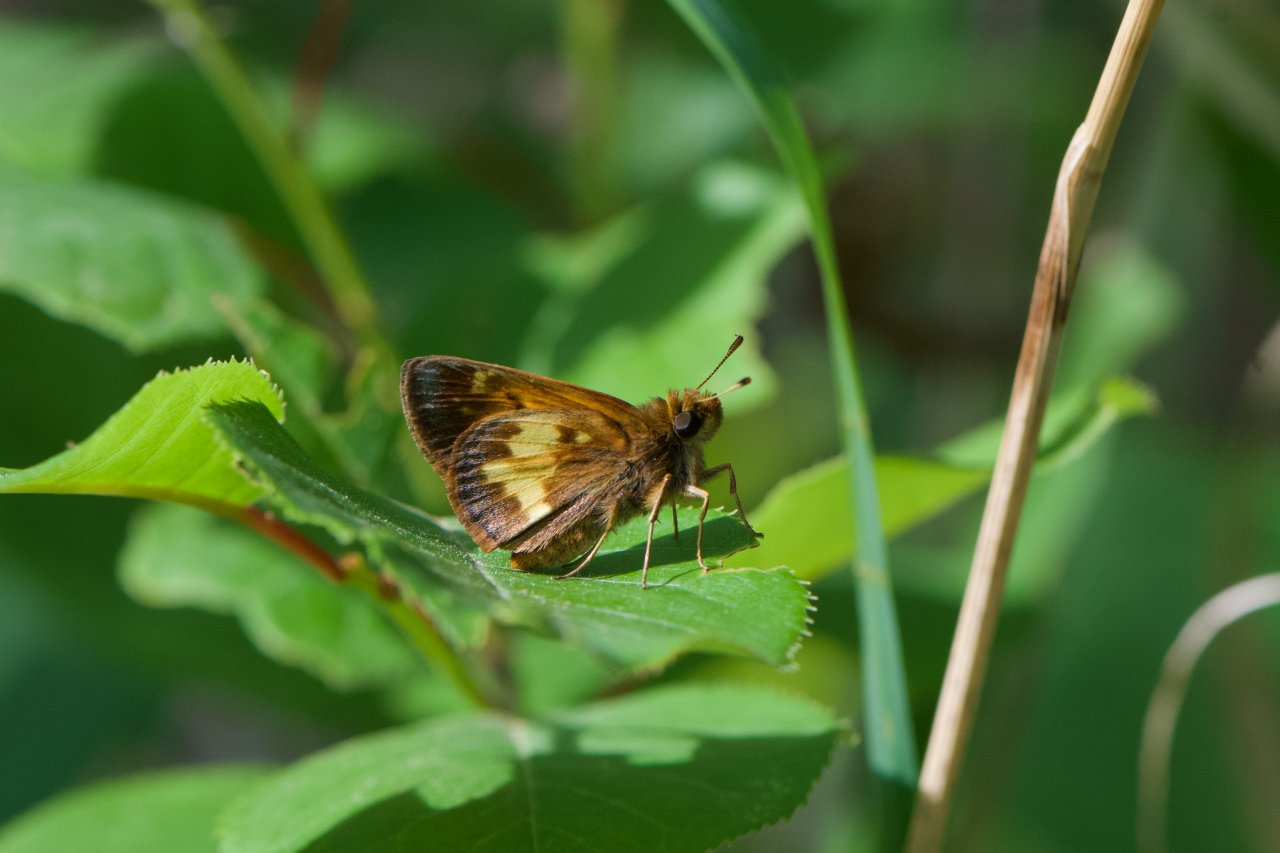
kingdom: Animalia
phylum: Arthropoda
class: Insecta
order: Lepidoptera
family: Hesperiidae
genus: Lon
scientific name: Lon hobomok
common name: Hobomok Skipper
